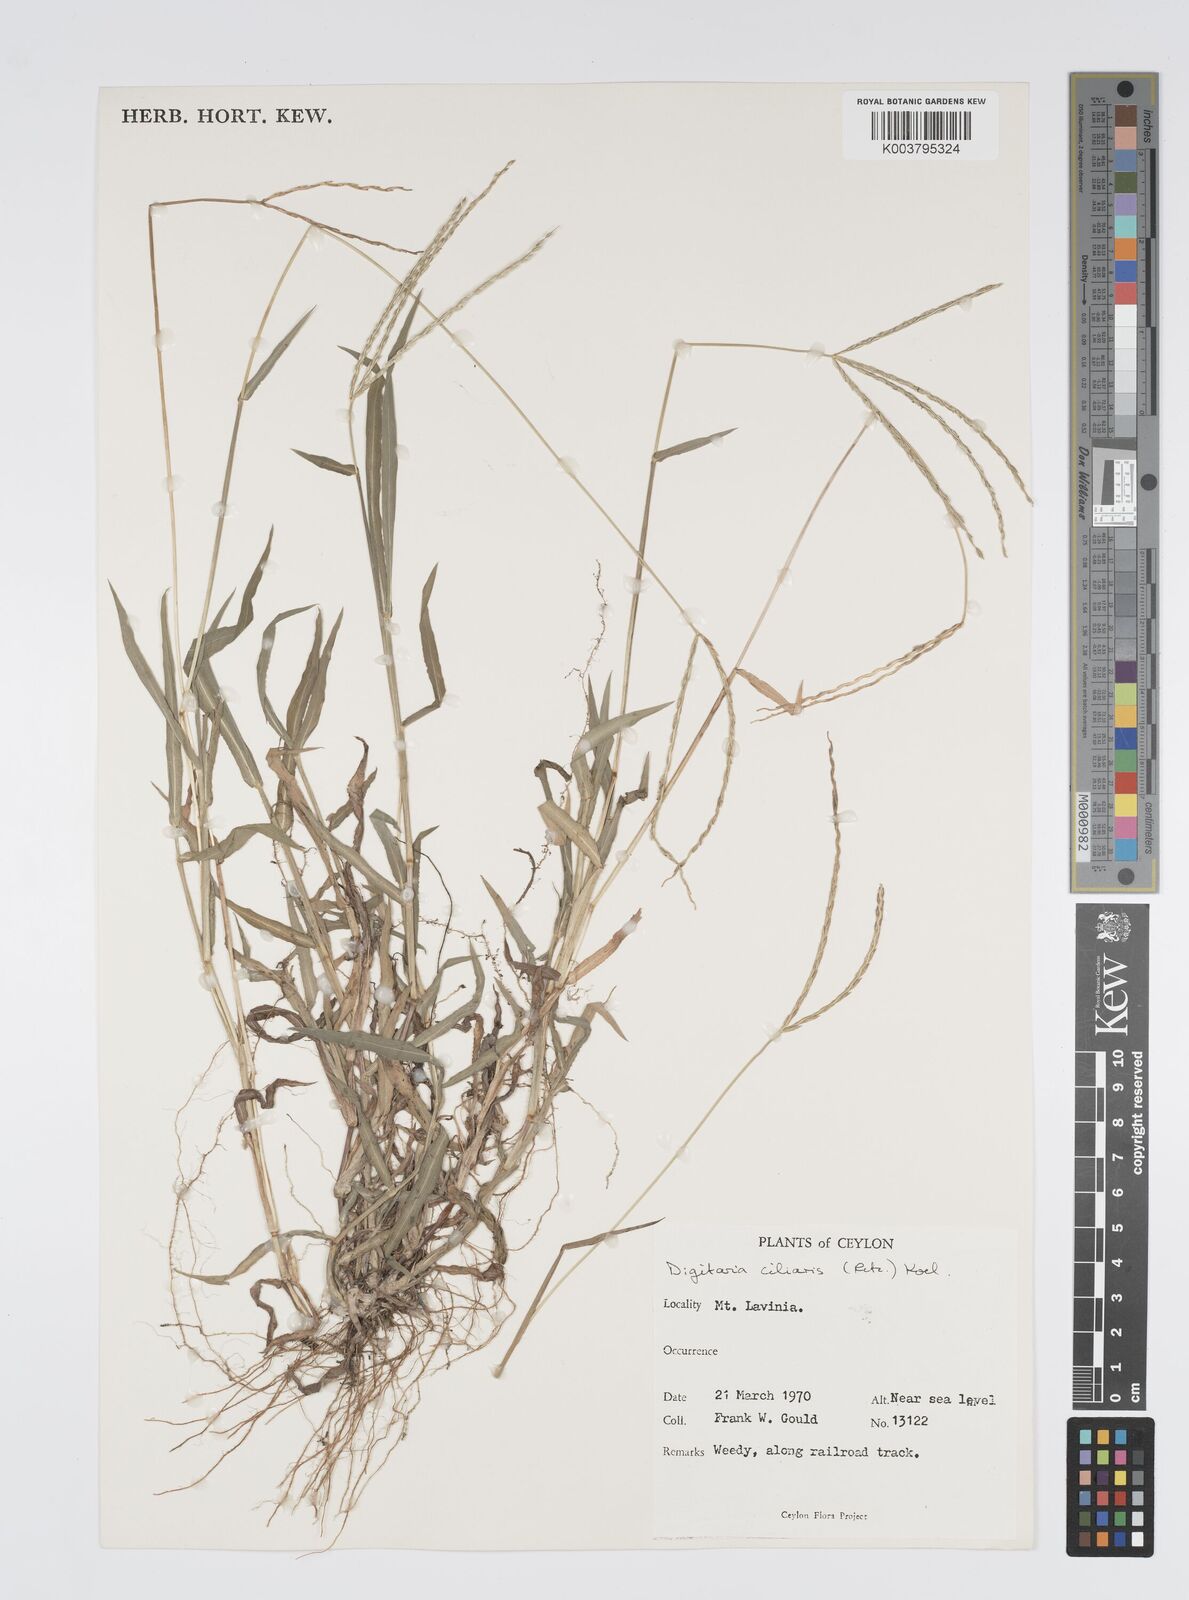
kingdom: Plantae
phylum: Tracheophyta
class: Liliopsida
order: Poales
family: Poaceae
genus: Digitaria
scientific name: Digitaria ciliaris
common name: Tropical finger-grass
